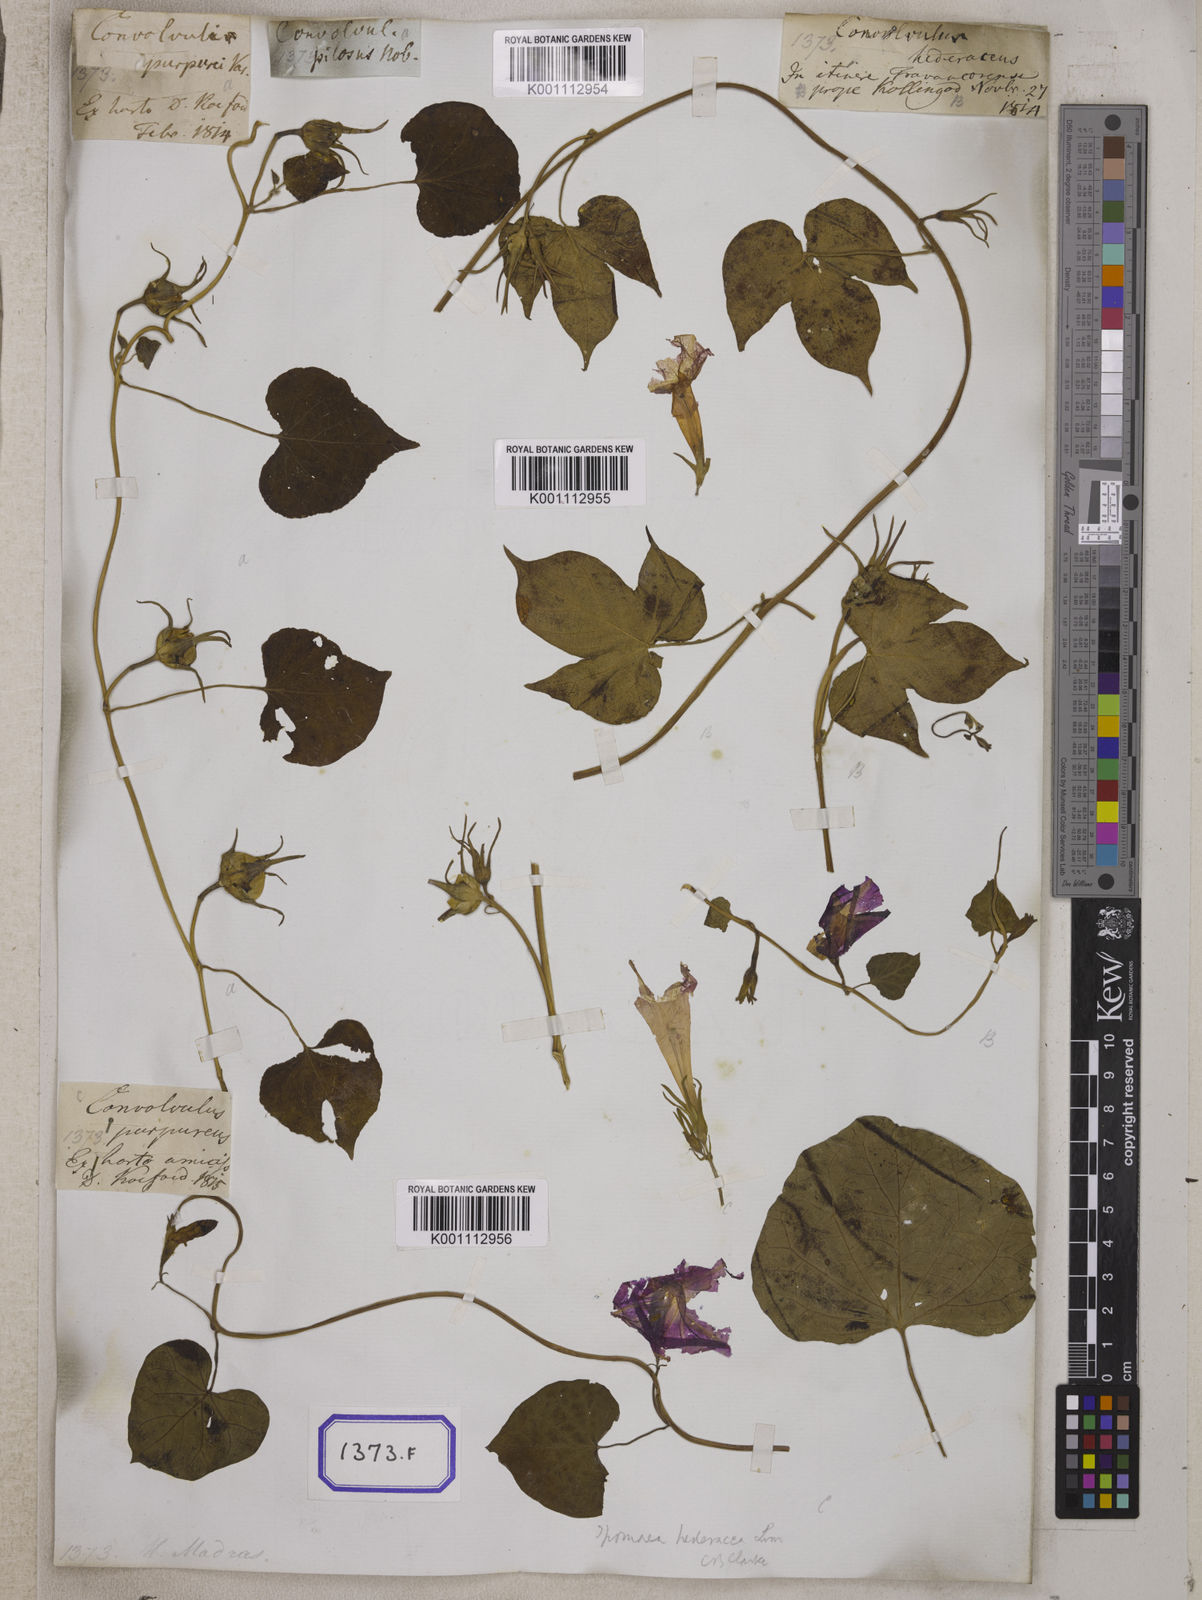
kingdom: Plantae
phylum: Tracheophyta
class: Magnoliopsida
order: Solanales
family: Convolvulaceae
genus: Ipomoea
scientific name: Ipomoea nil
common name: Japanese morning-glory
